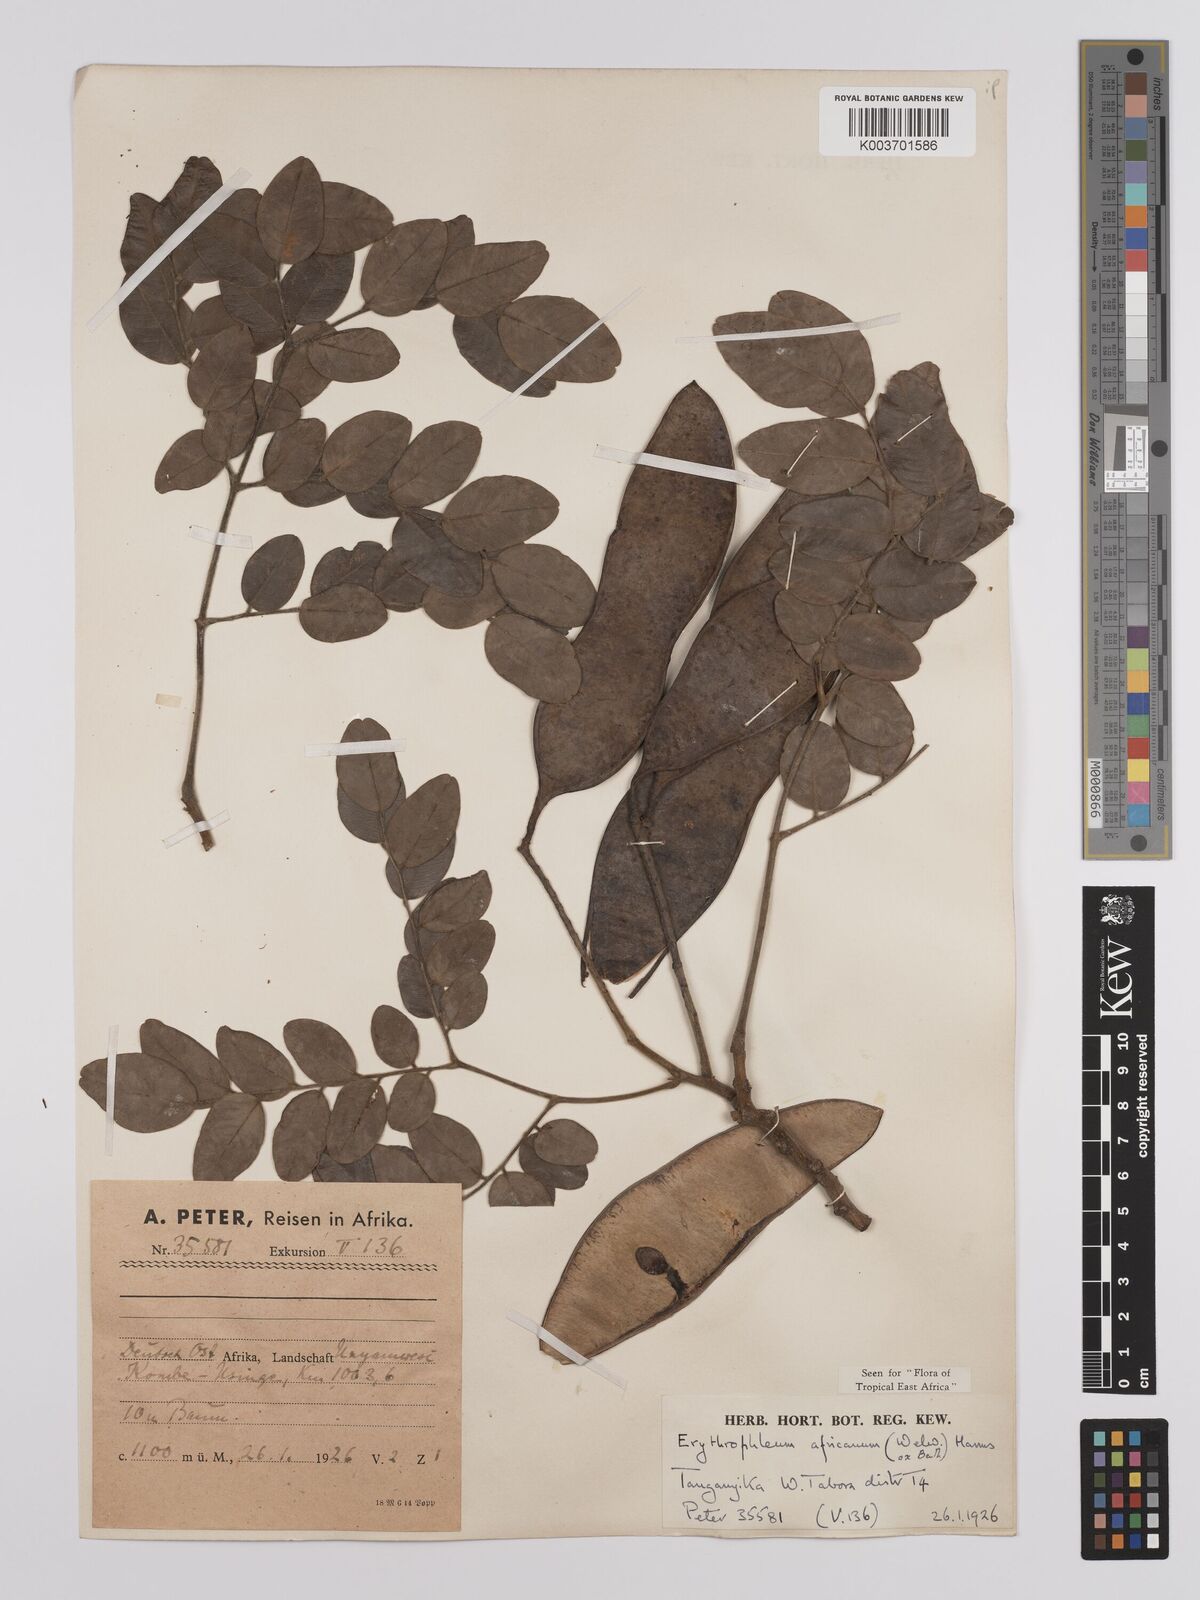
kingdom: Plantae
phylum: Tracheophyta
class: Magnoliopsida
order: Fabales
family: Fabaceae
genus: Erythrophleum
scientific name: Erythrophleum africanum
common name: African blackwood
